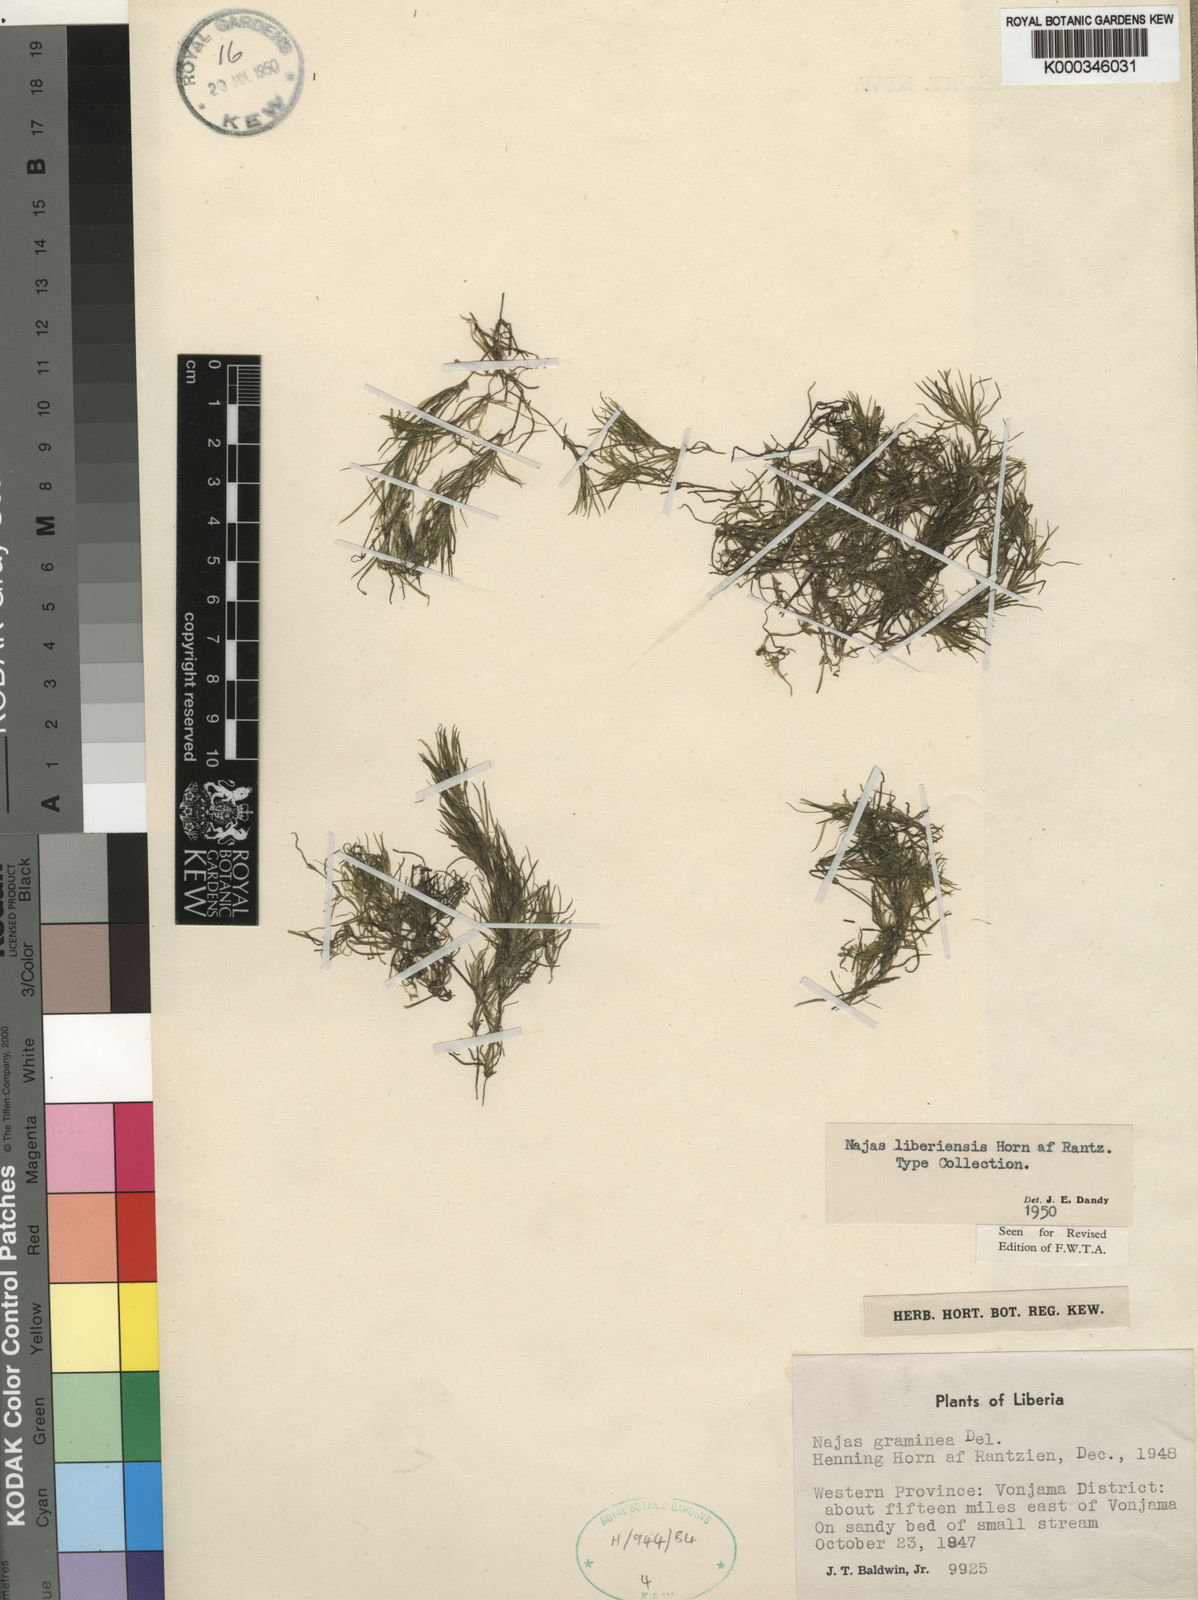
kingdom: Plantae
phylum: Tracheophyta
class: Liliopsida
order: Alismatales
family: Hydrocharitaceae
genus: Najas
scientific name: Najas baldwinii
